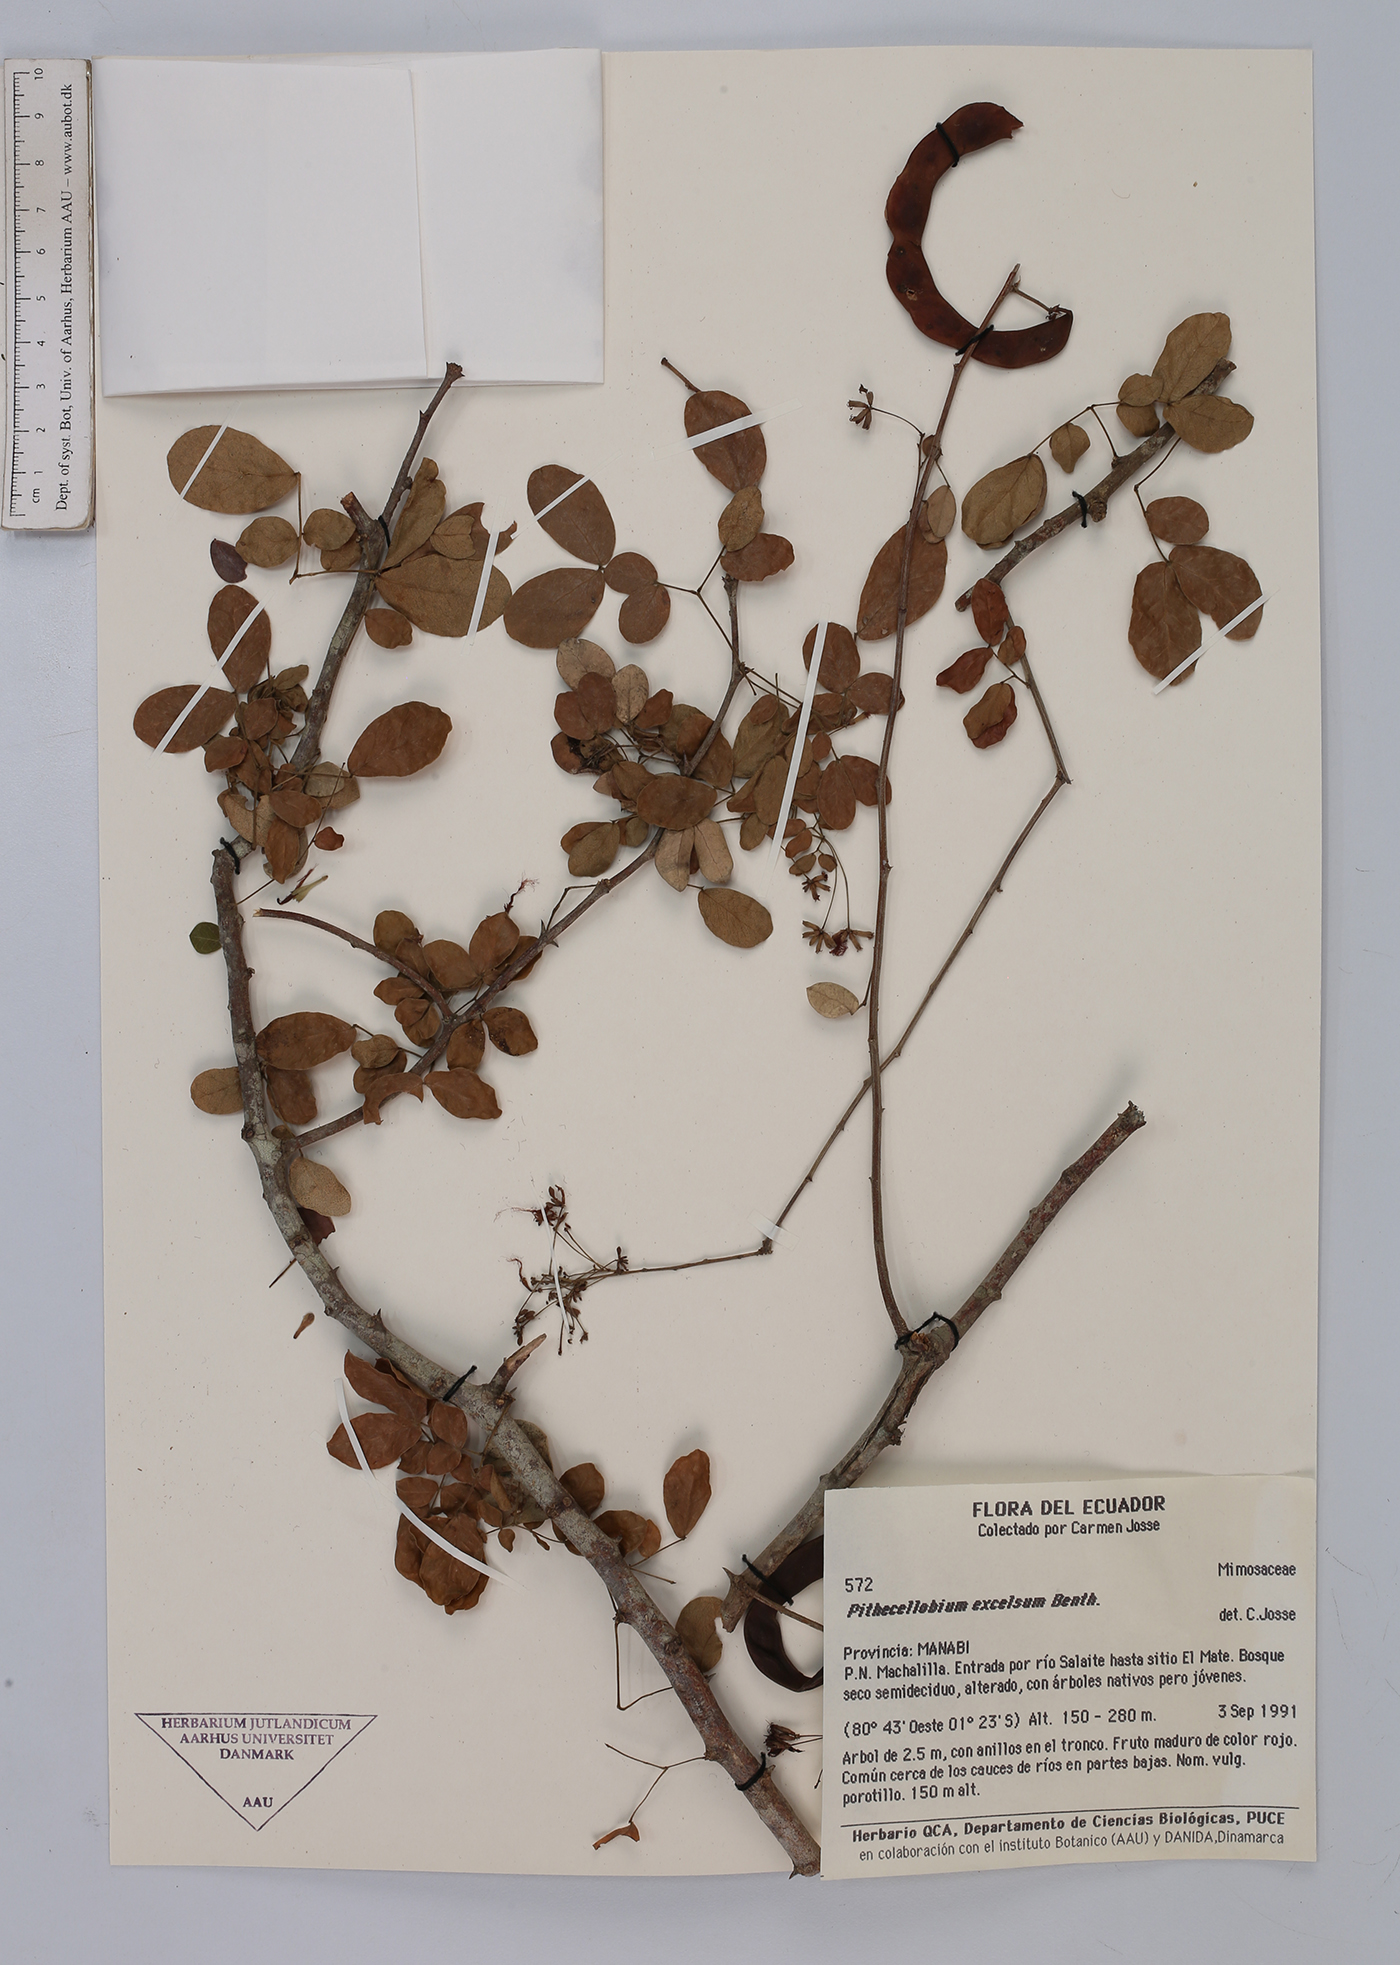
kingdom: Plantae
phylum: Tracheophyta
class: Magnoliopsida
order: Fabales
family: Fabaceae
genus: Pithecellobium
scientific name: Pithecellobium excelsum
